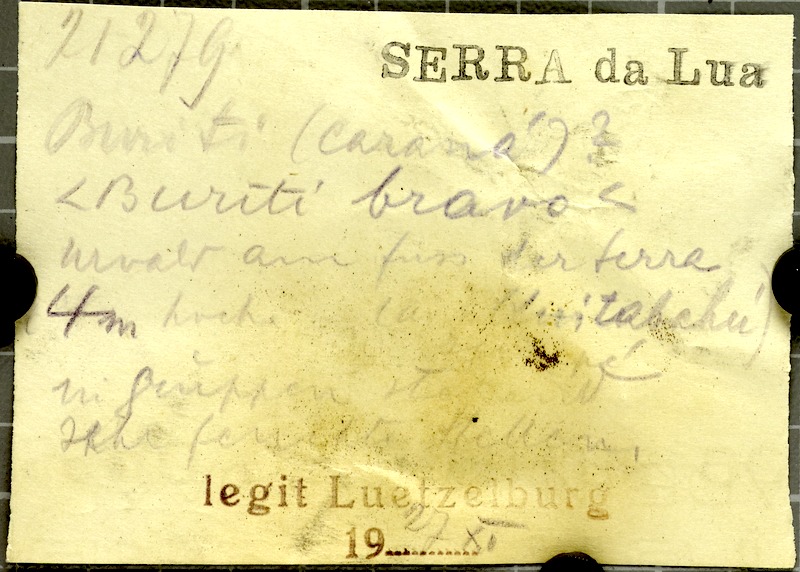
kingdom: Plantae
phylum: Tracheophyta
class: Liliopsida
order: Arecales
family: Arecaceae
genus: Mauritia
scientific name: Mauritia
